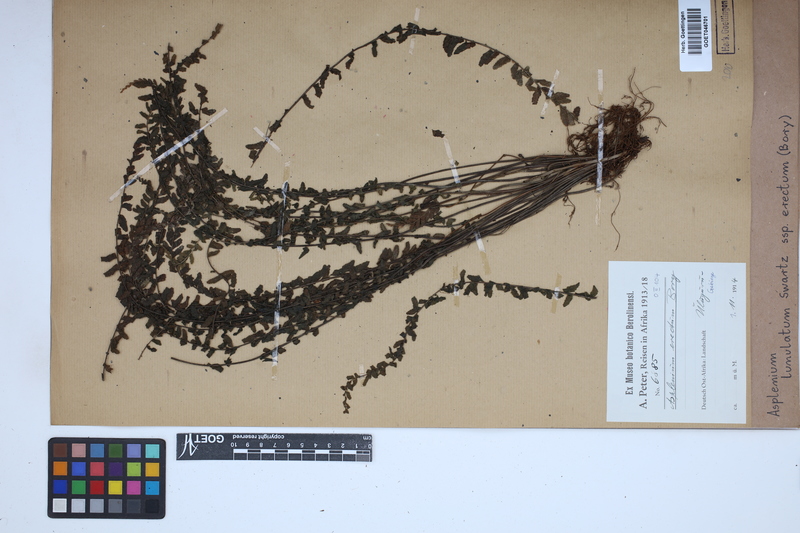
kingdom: Plantae
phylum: Tracheophyta
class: Polypodiopsida
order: Polypodiales
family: Aspleniaceae
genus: Asplenium
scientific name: Asplenium erectum
